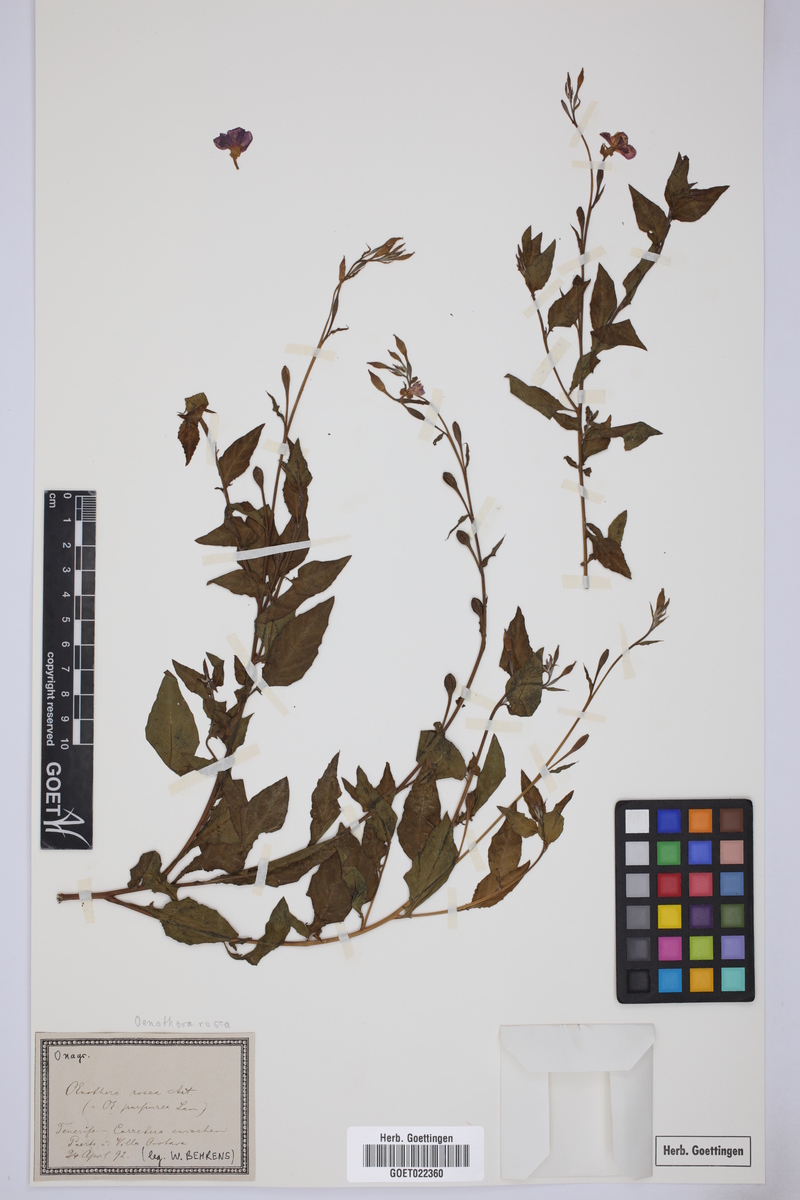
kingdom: Plantae
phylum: Tracheophyta
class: Magnoliopsida
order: Myrtales
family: Onagraceae
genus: Oenothera
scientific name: Oenothera rosea
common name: Rosy evening-primrose
